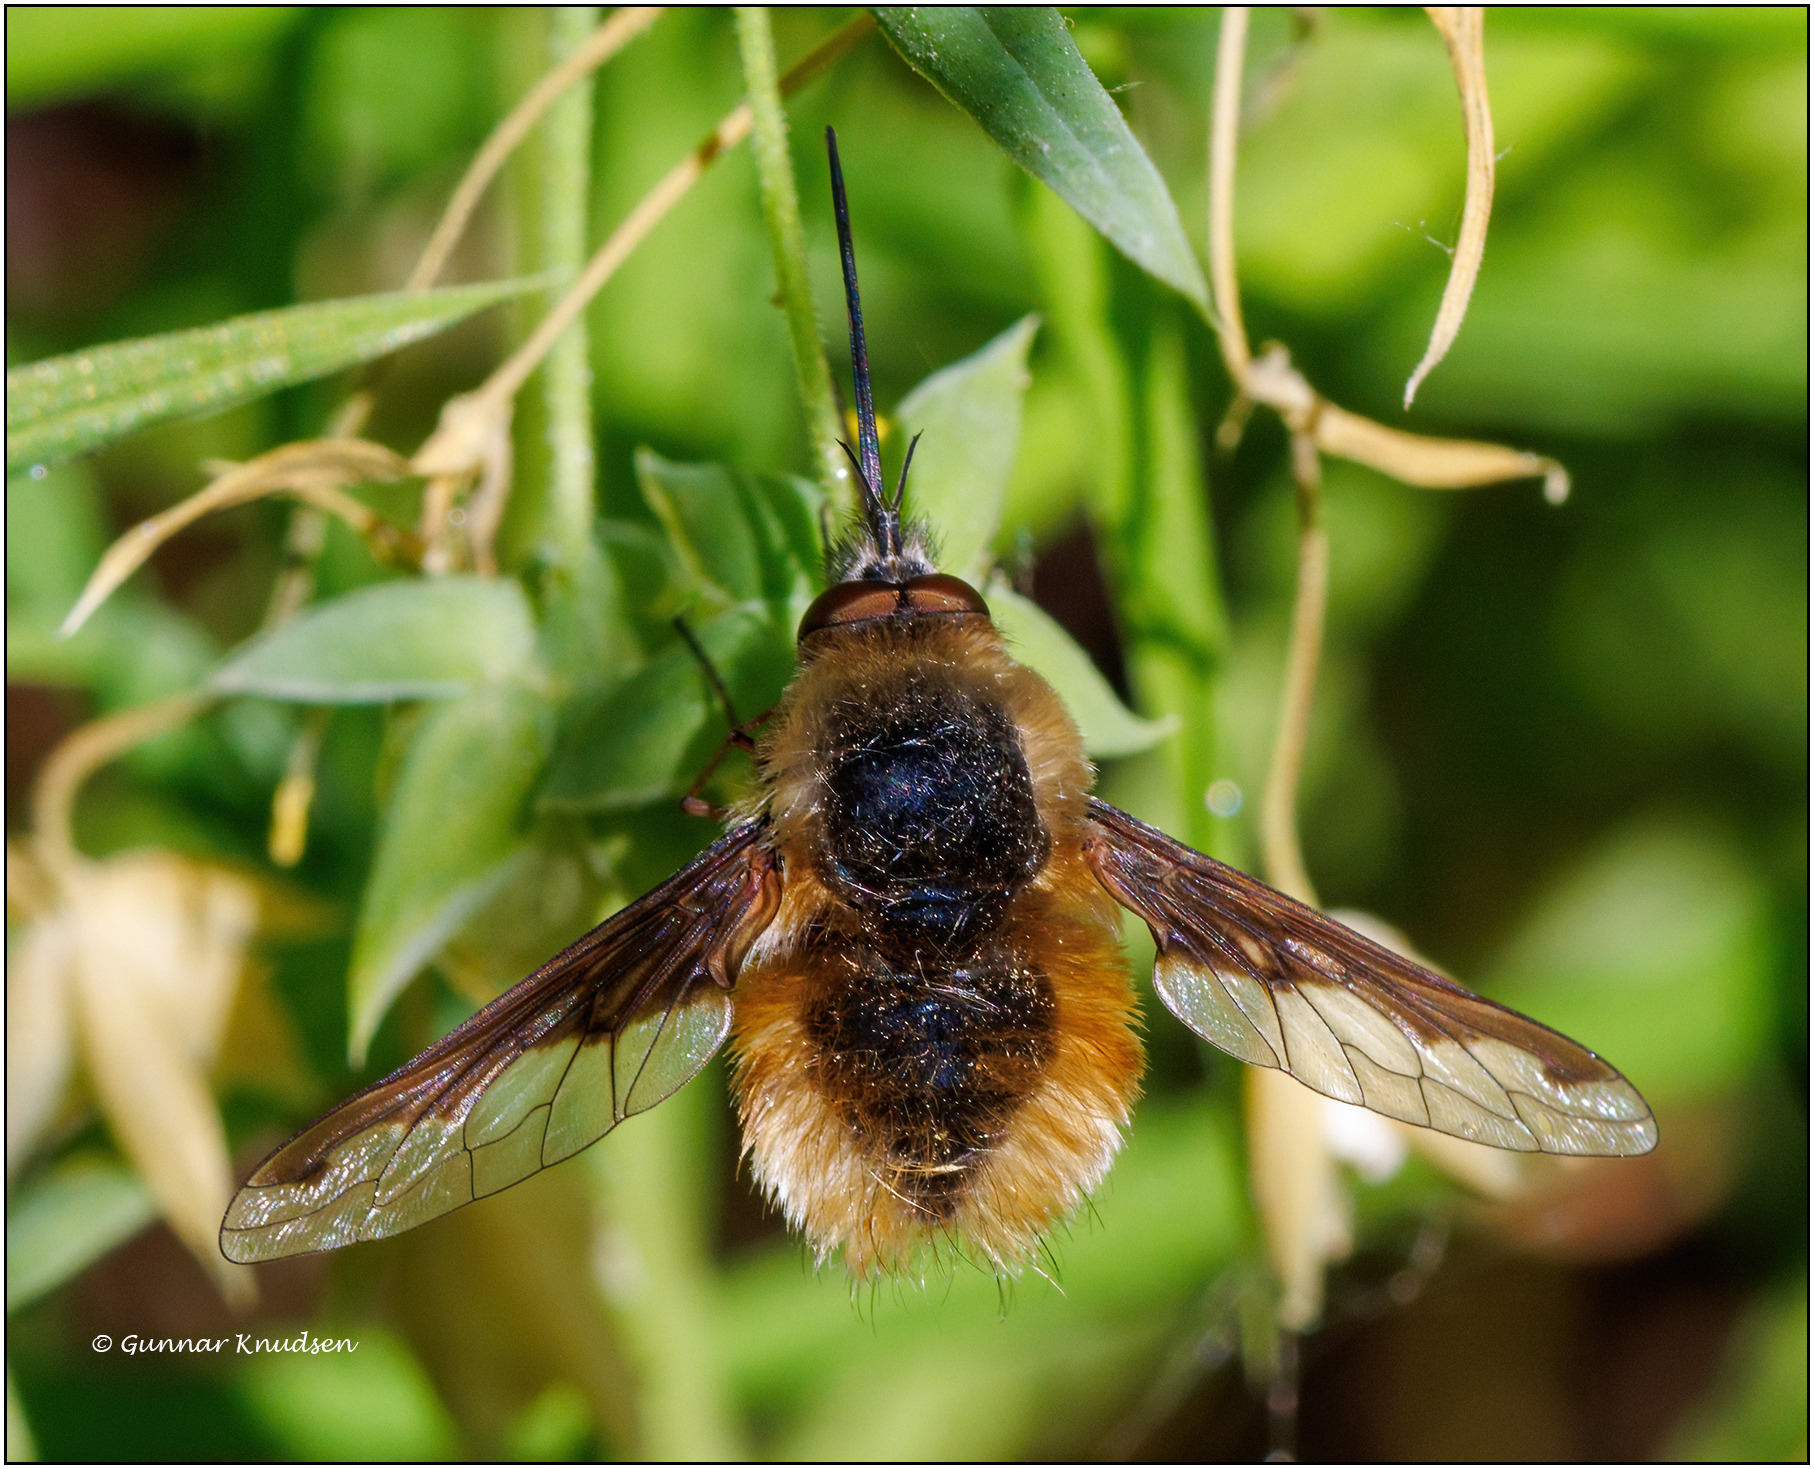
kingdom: Animalia
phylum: Arthropoda
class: Insecta
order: Diptera
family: Bombyliidae
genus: Bombylius
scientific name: Bombylius major
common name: Stor humleflue
